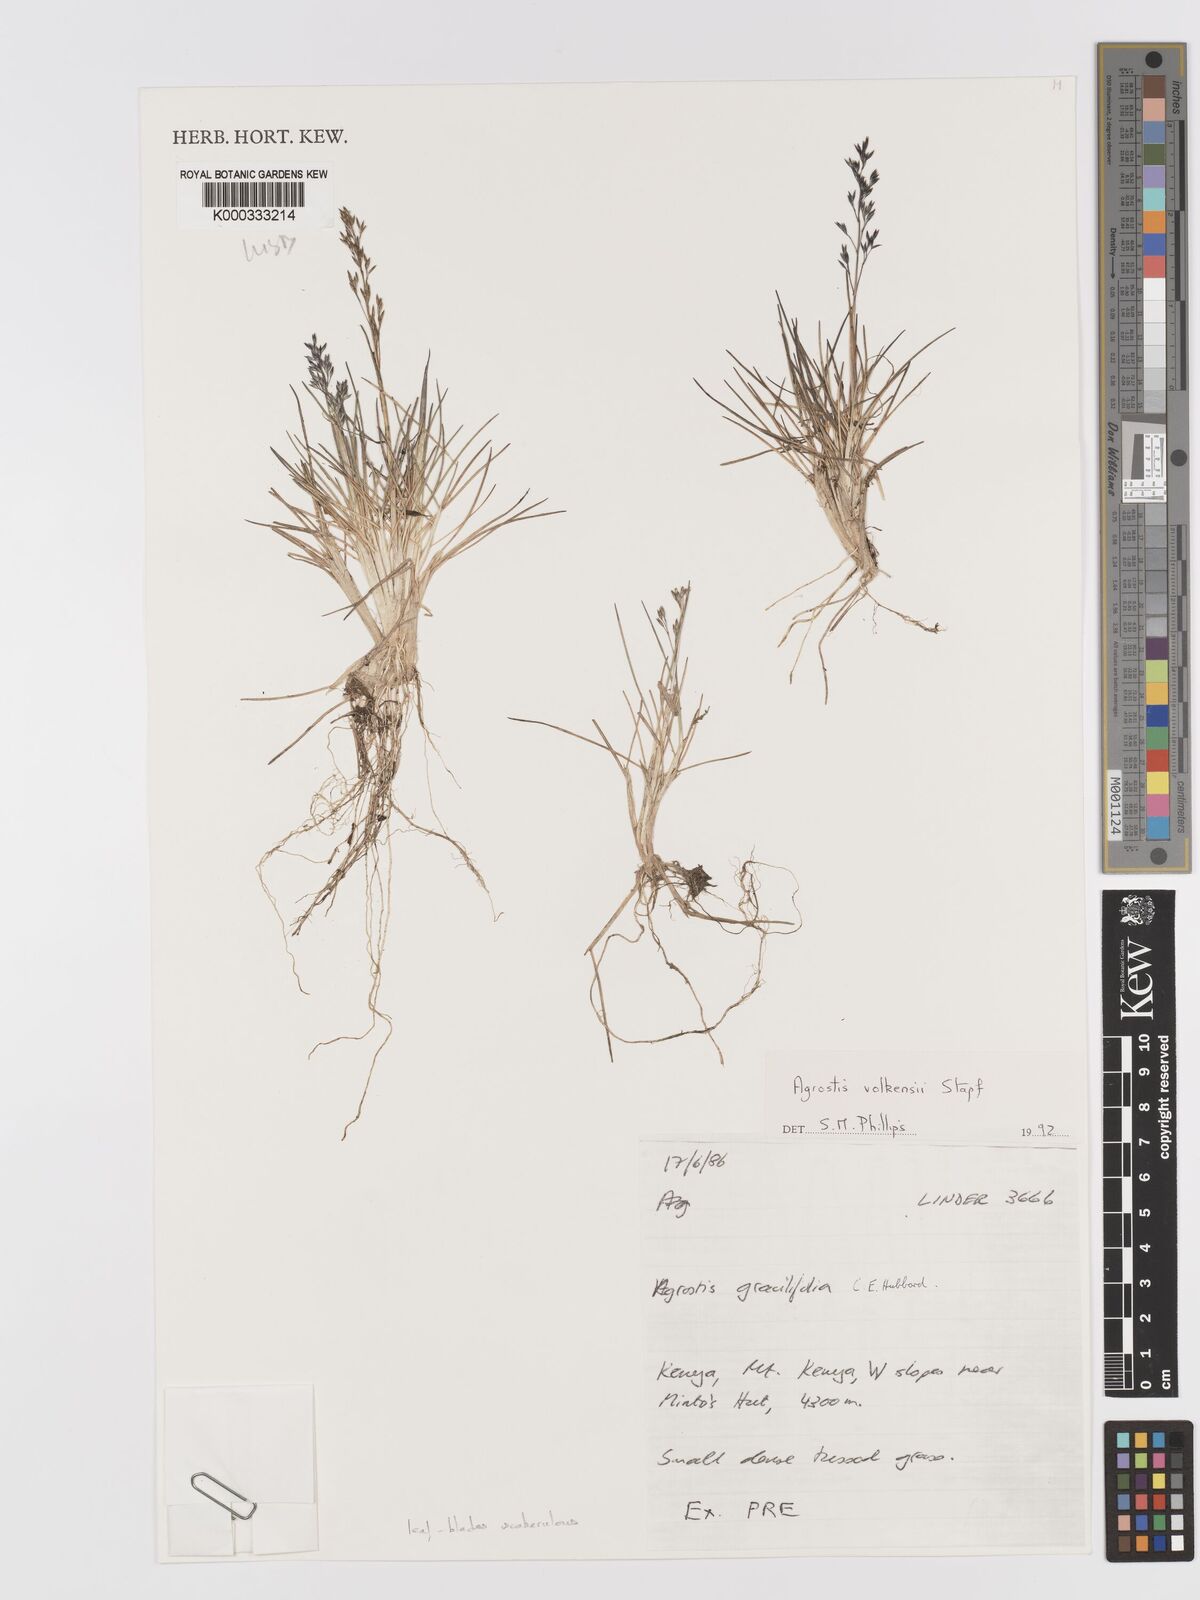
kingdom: Plantae
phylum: Tracheophyta
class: Liliopsida
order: Poales
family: Poaceae
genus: Agrostis
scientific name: Agrostis volkensii
